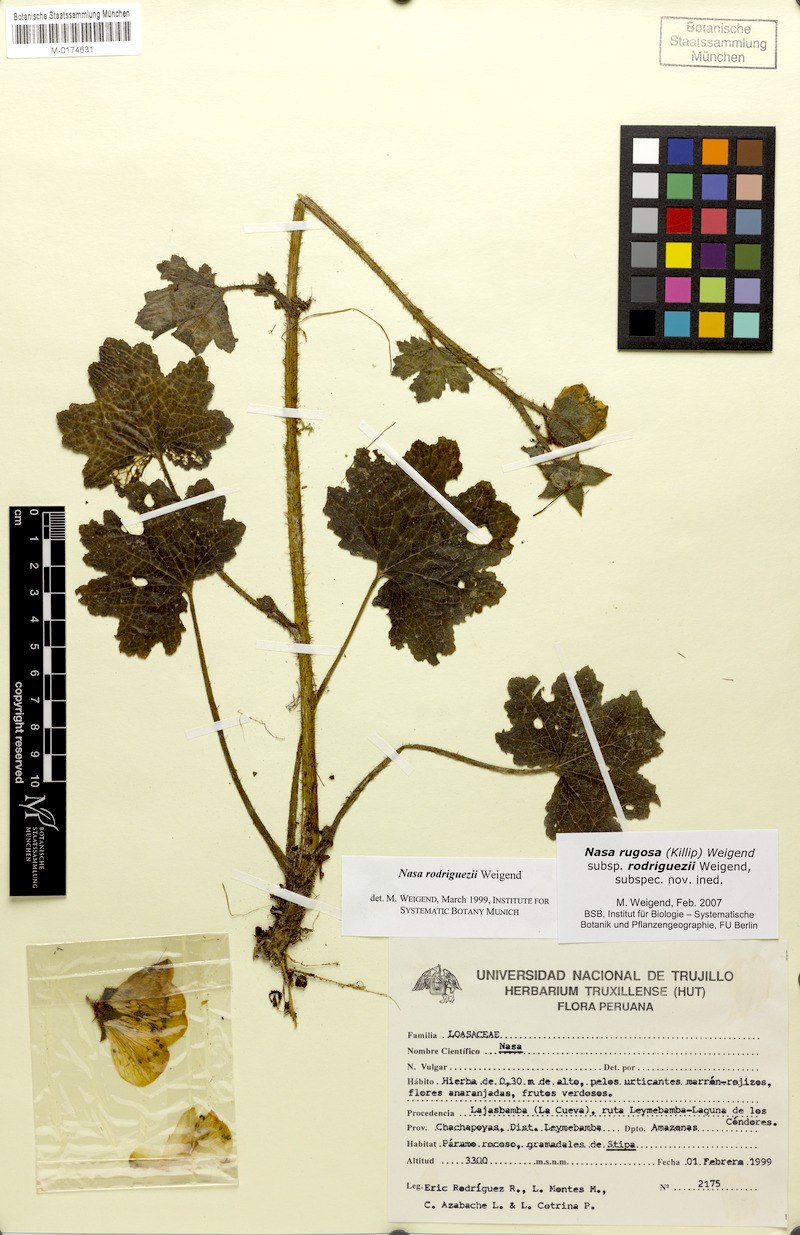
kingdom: Plantae
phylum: Tracheophyta
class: Magnoliopsida
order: Cornales
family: Loasaceae
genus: Nasa
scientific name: Nasa rugosa
